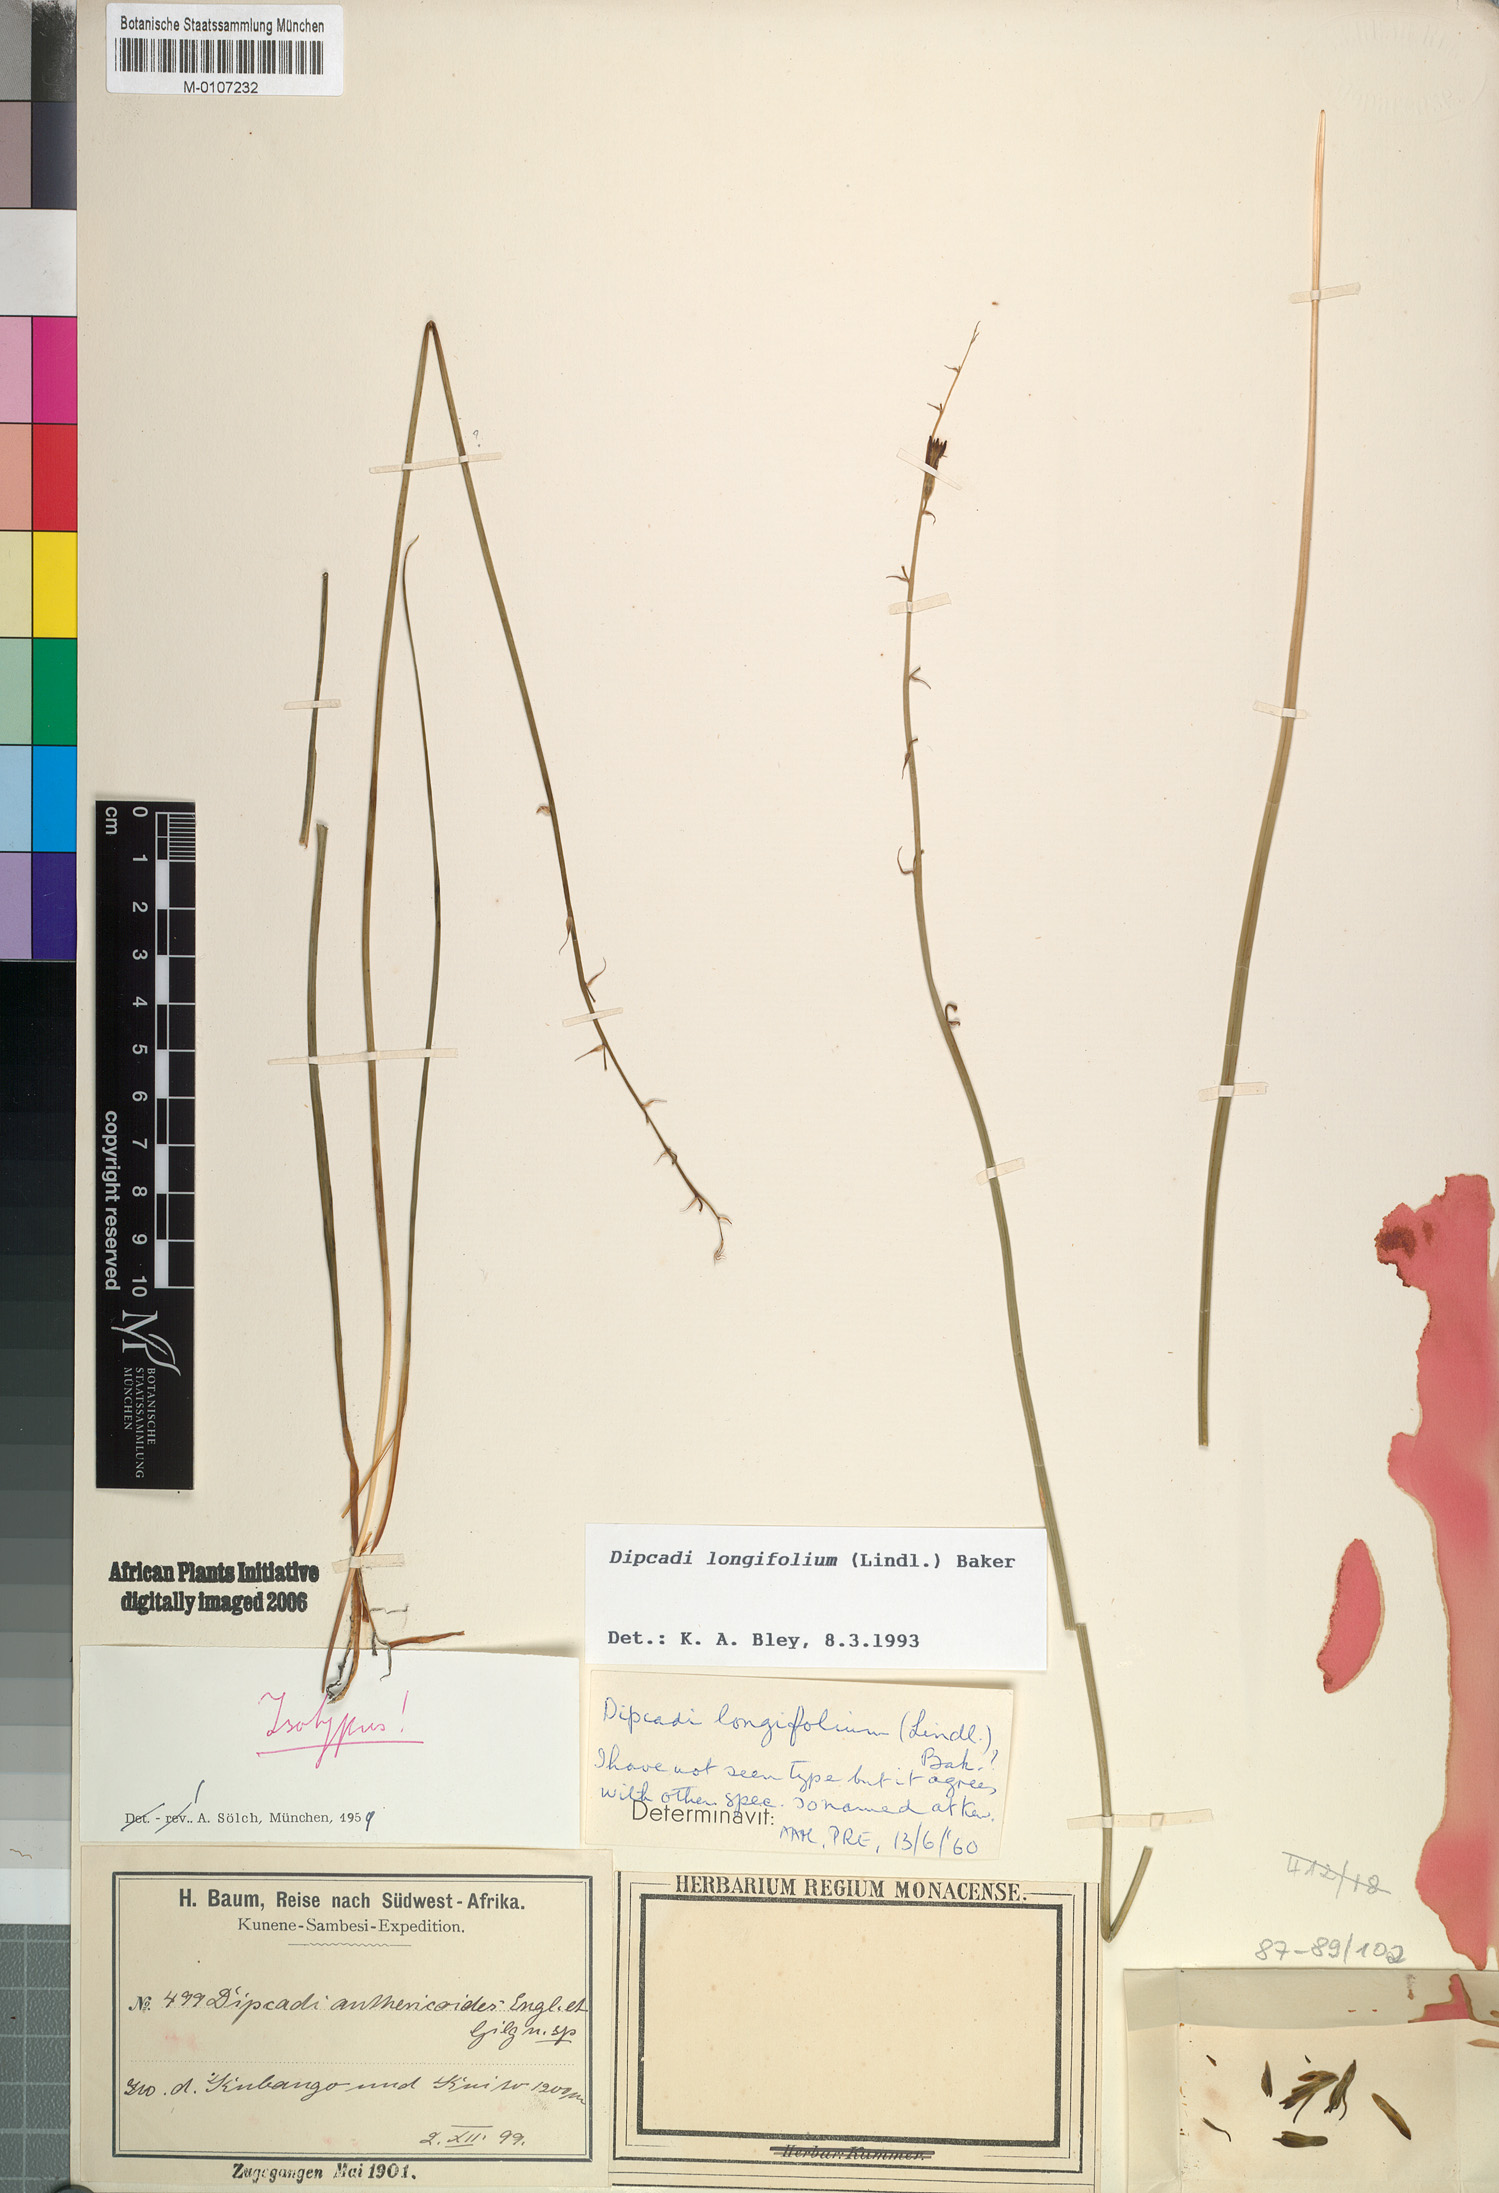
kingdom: Plantae
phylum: Tracheophyta
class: Liliopsida
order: Asparagales
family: Asparagaceae
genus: Dipcadi
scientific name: Dipcadi longifolium
